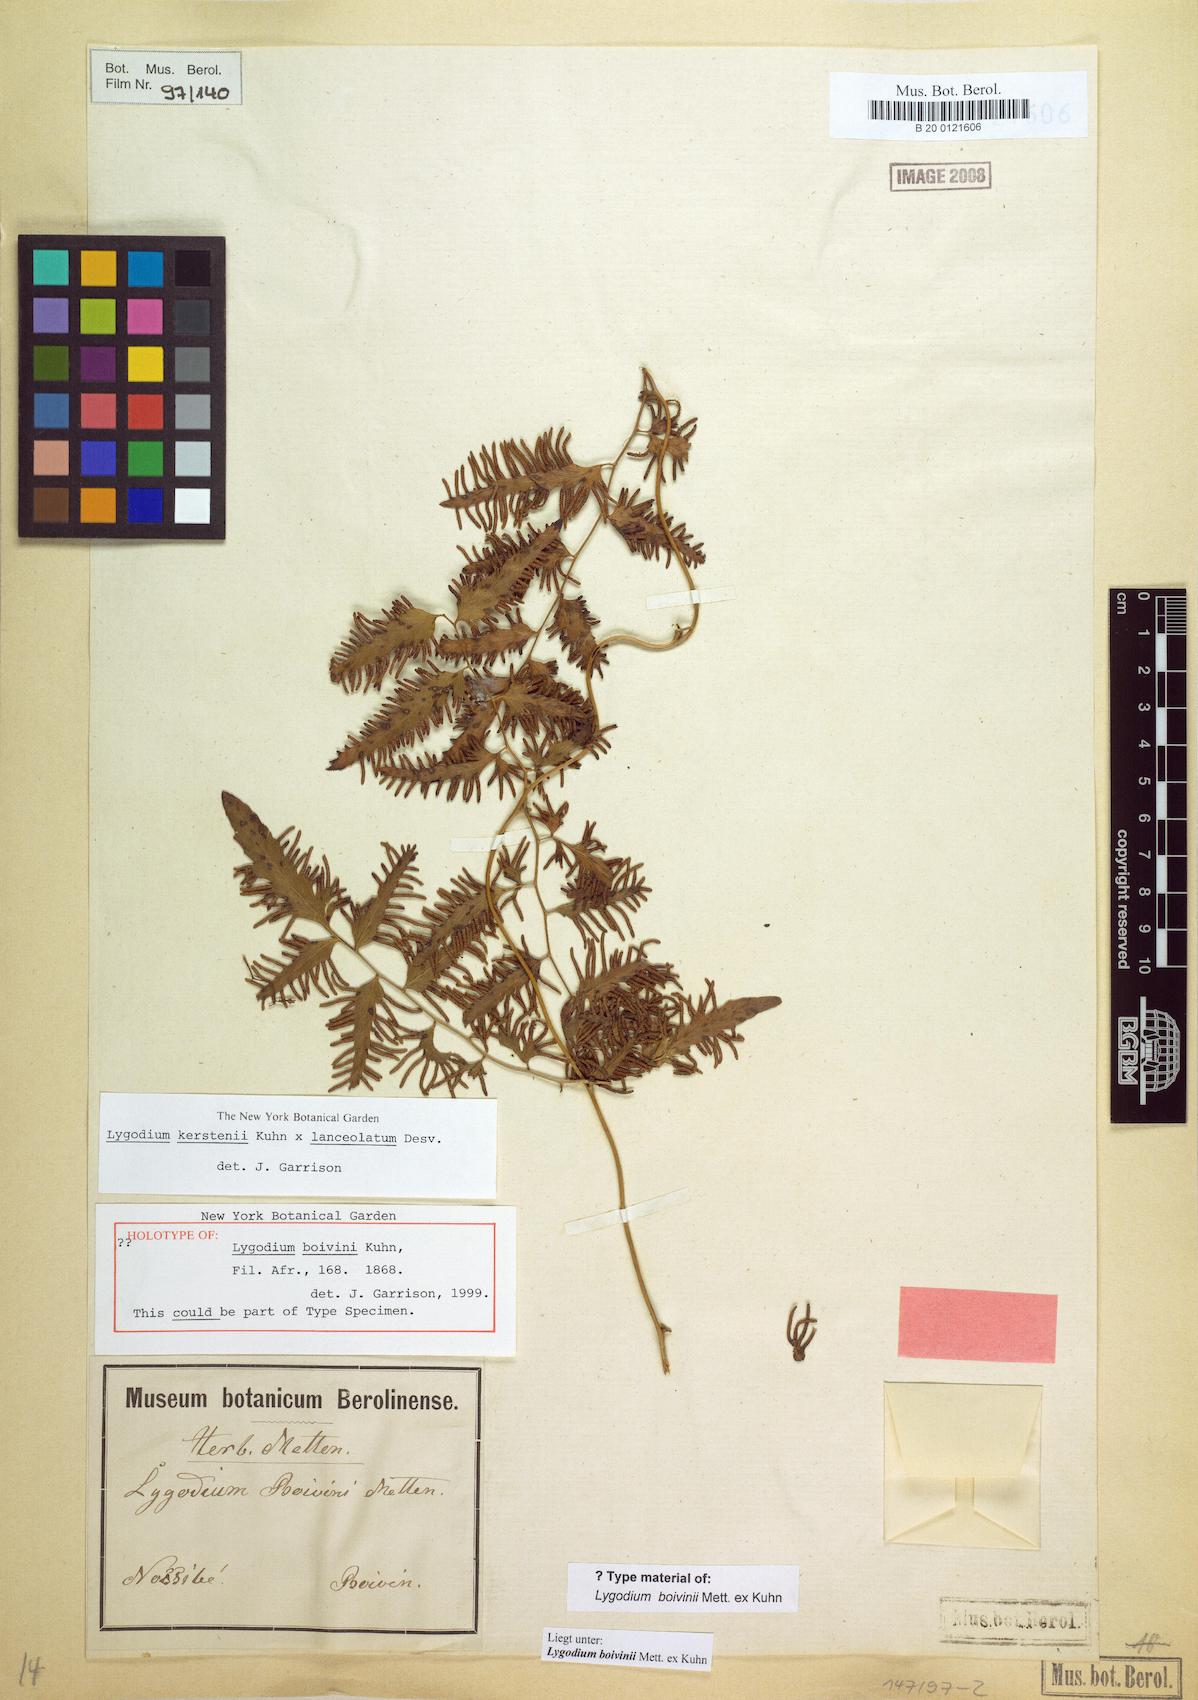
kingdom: Plantae
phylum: Tracheophyta
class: Polypodiopsida
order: Schizaeales
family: Lygodiaceae
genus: Lygodium
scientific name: Lygodium boivinii
